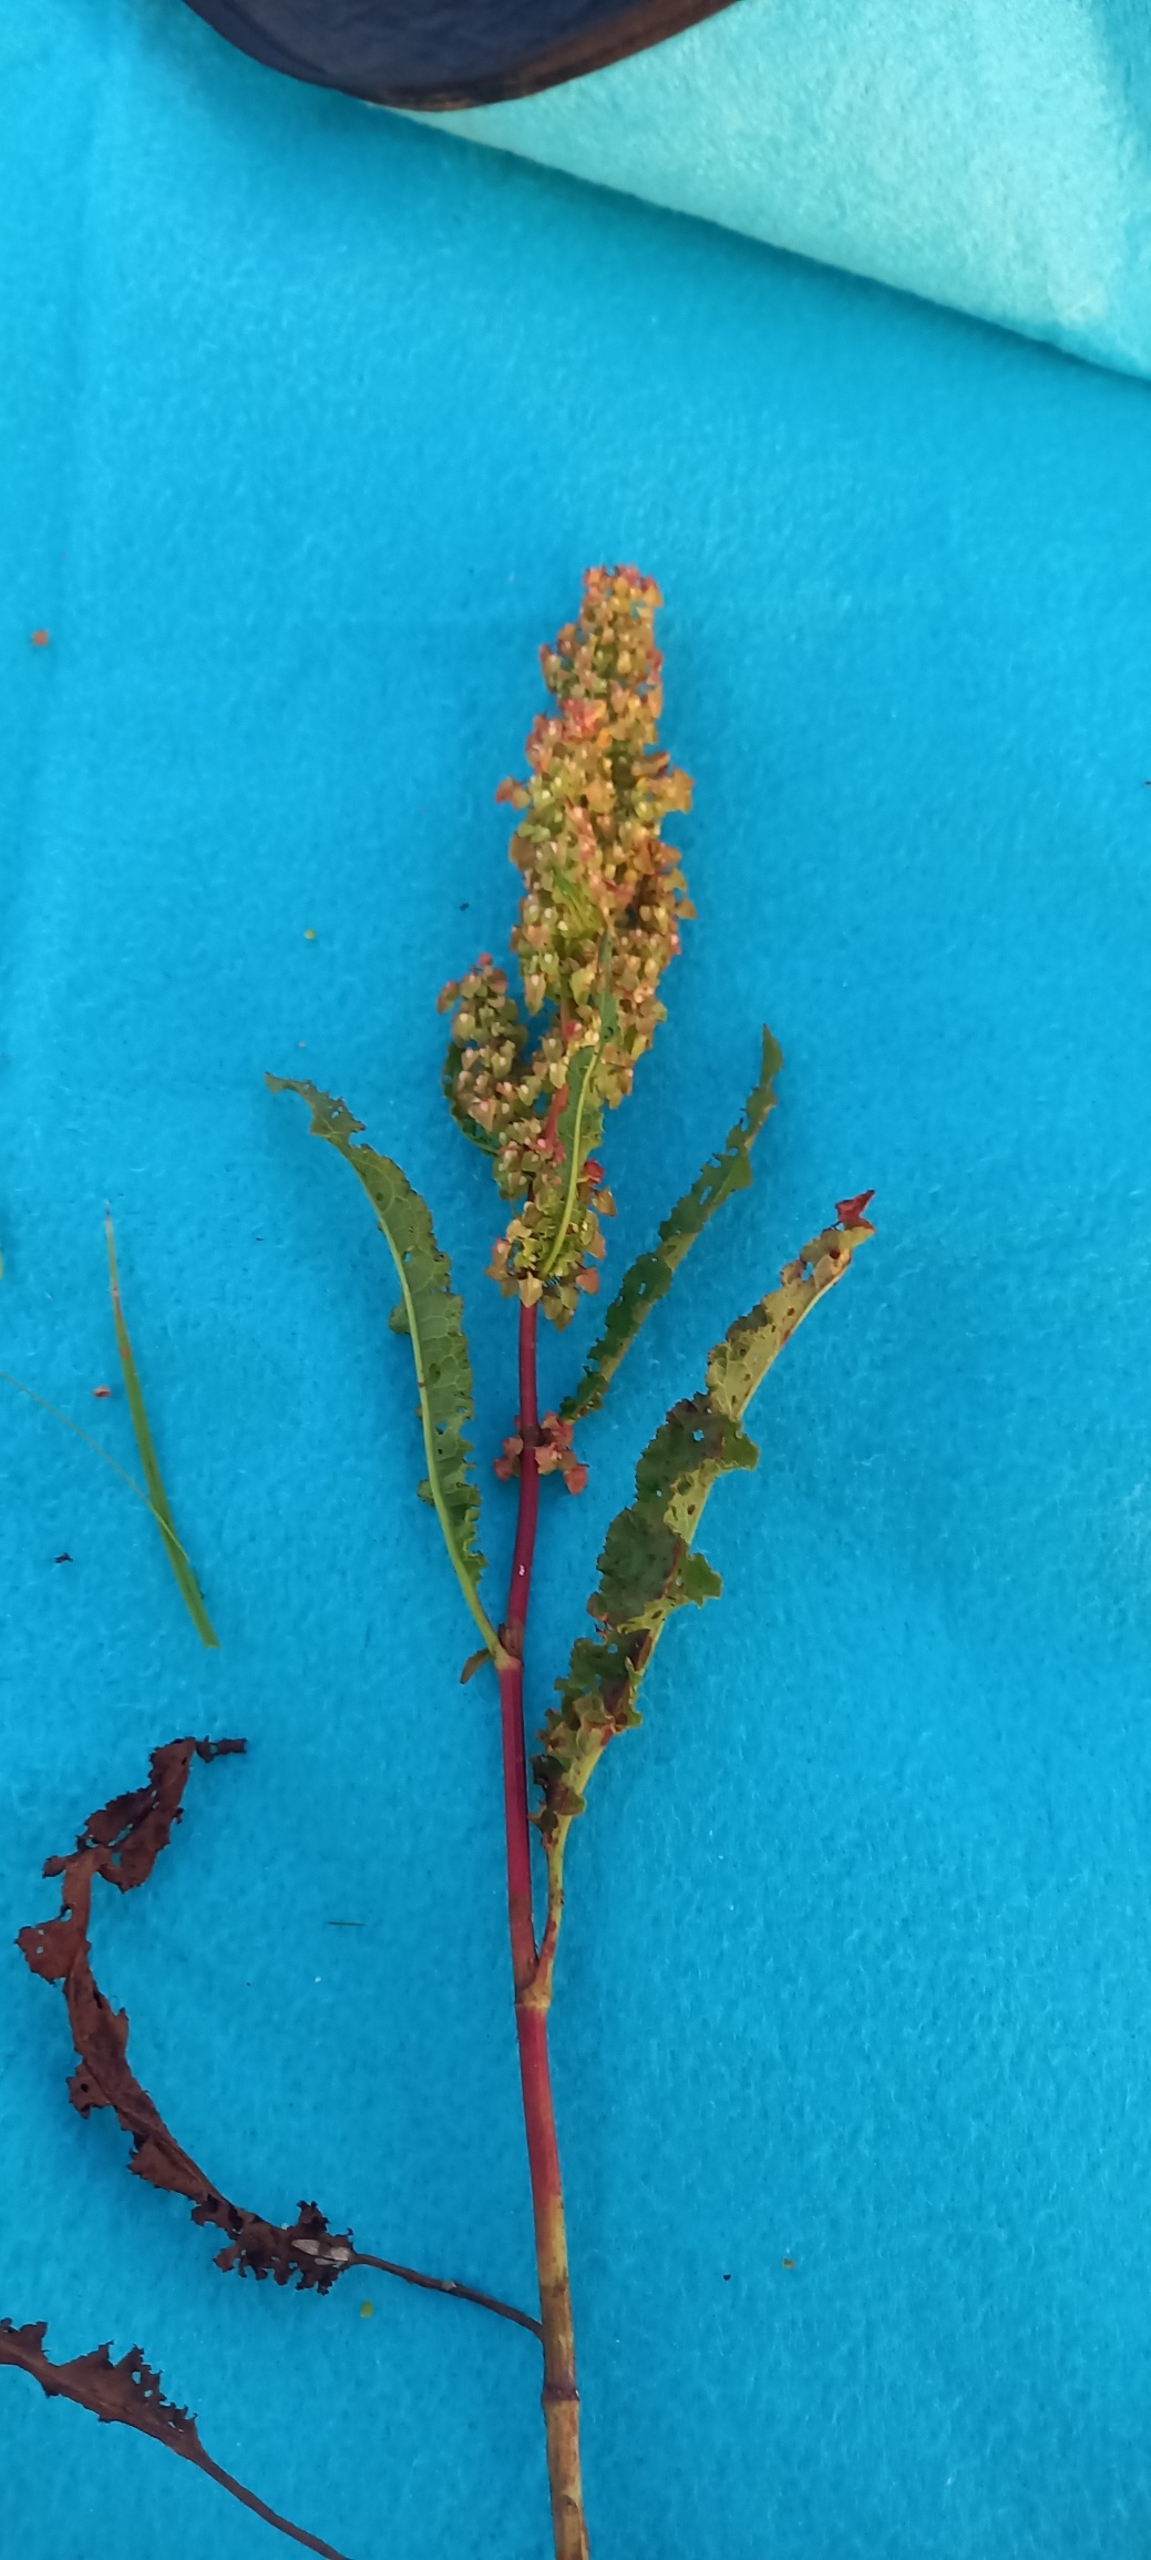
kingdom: Plantae
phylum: Tracheophyta
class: Magnoliopsida
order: Caryophyllales
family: Polygonaceae
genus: Rumex
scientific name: Rumex crispus
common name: Kruset skræppe
